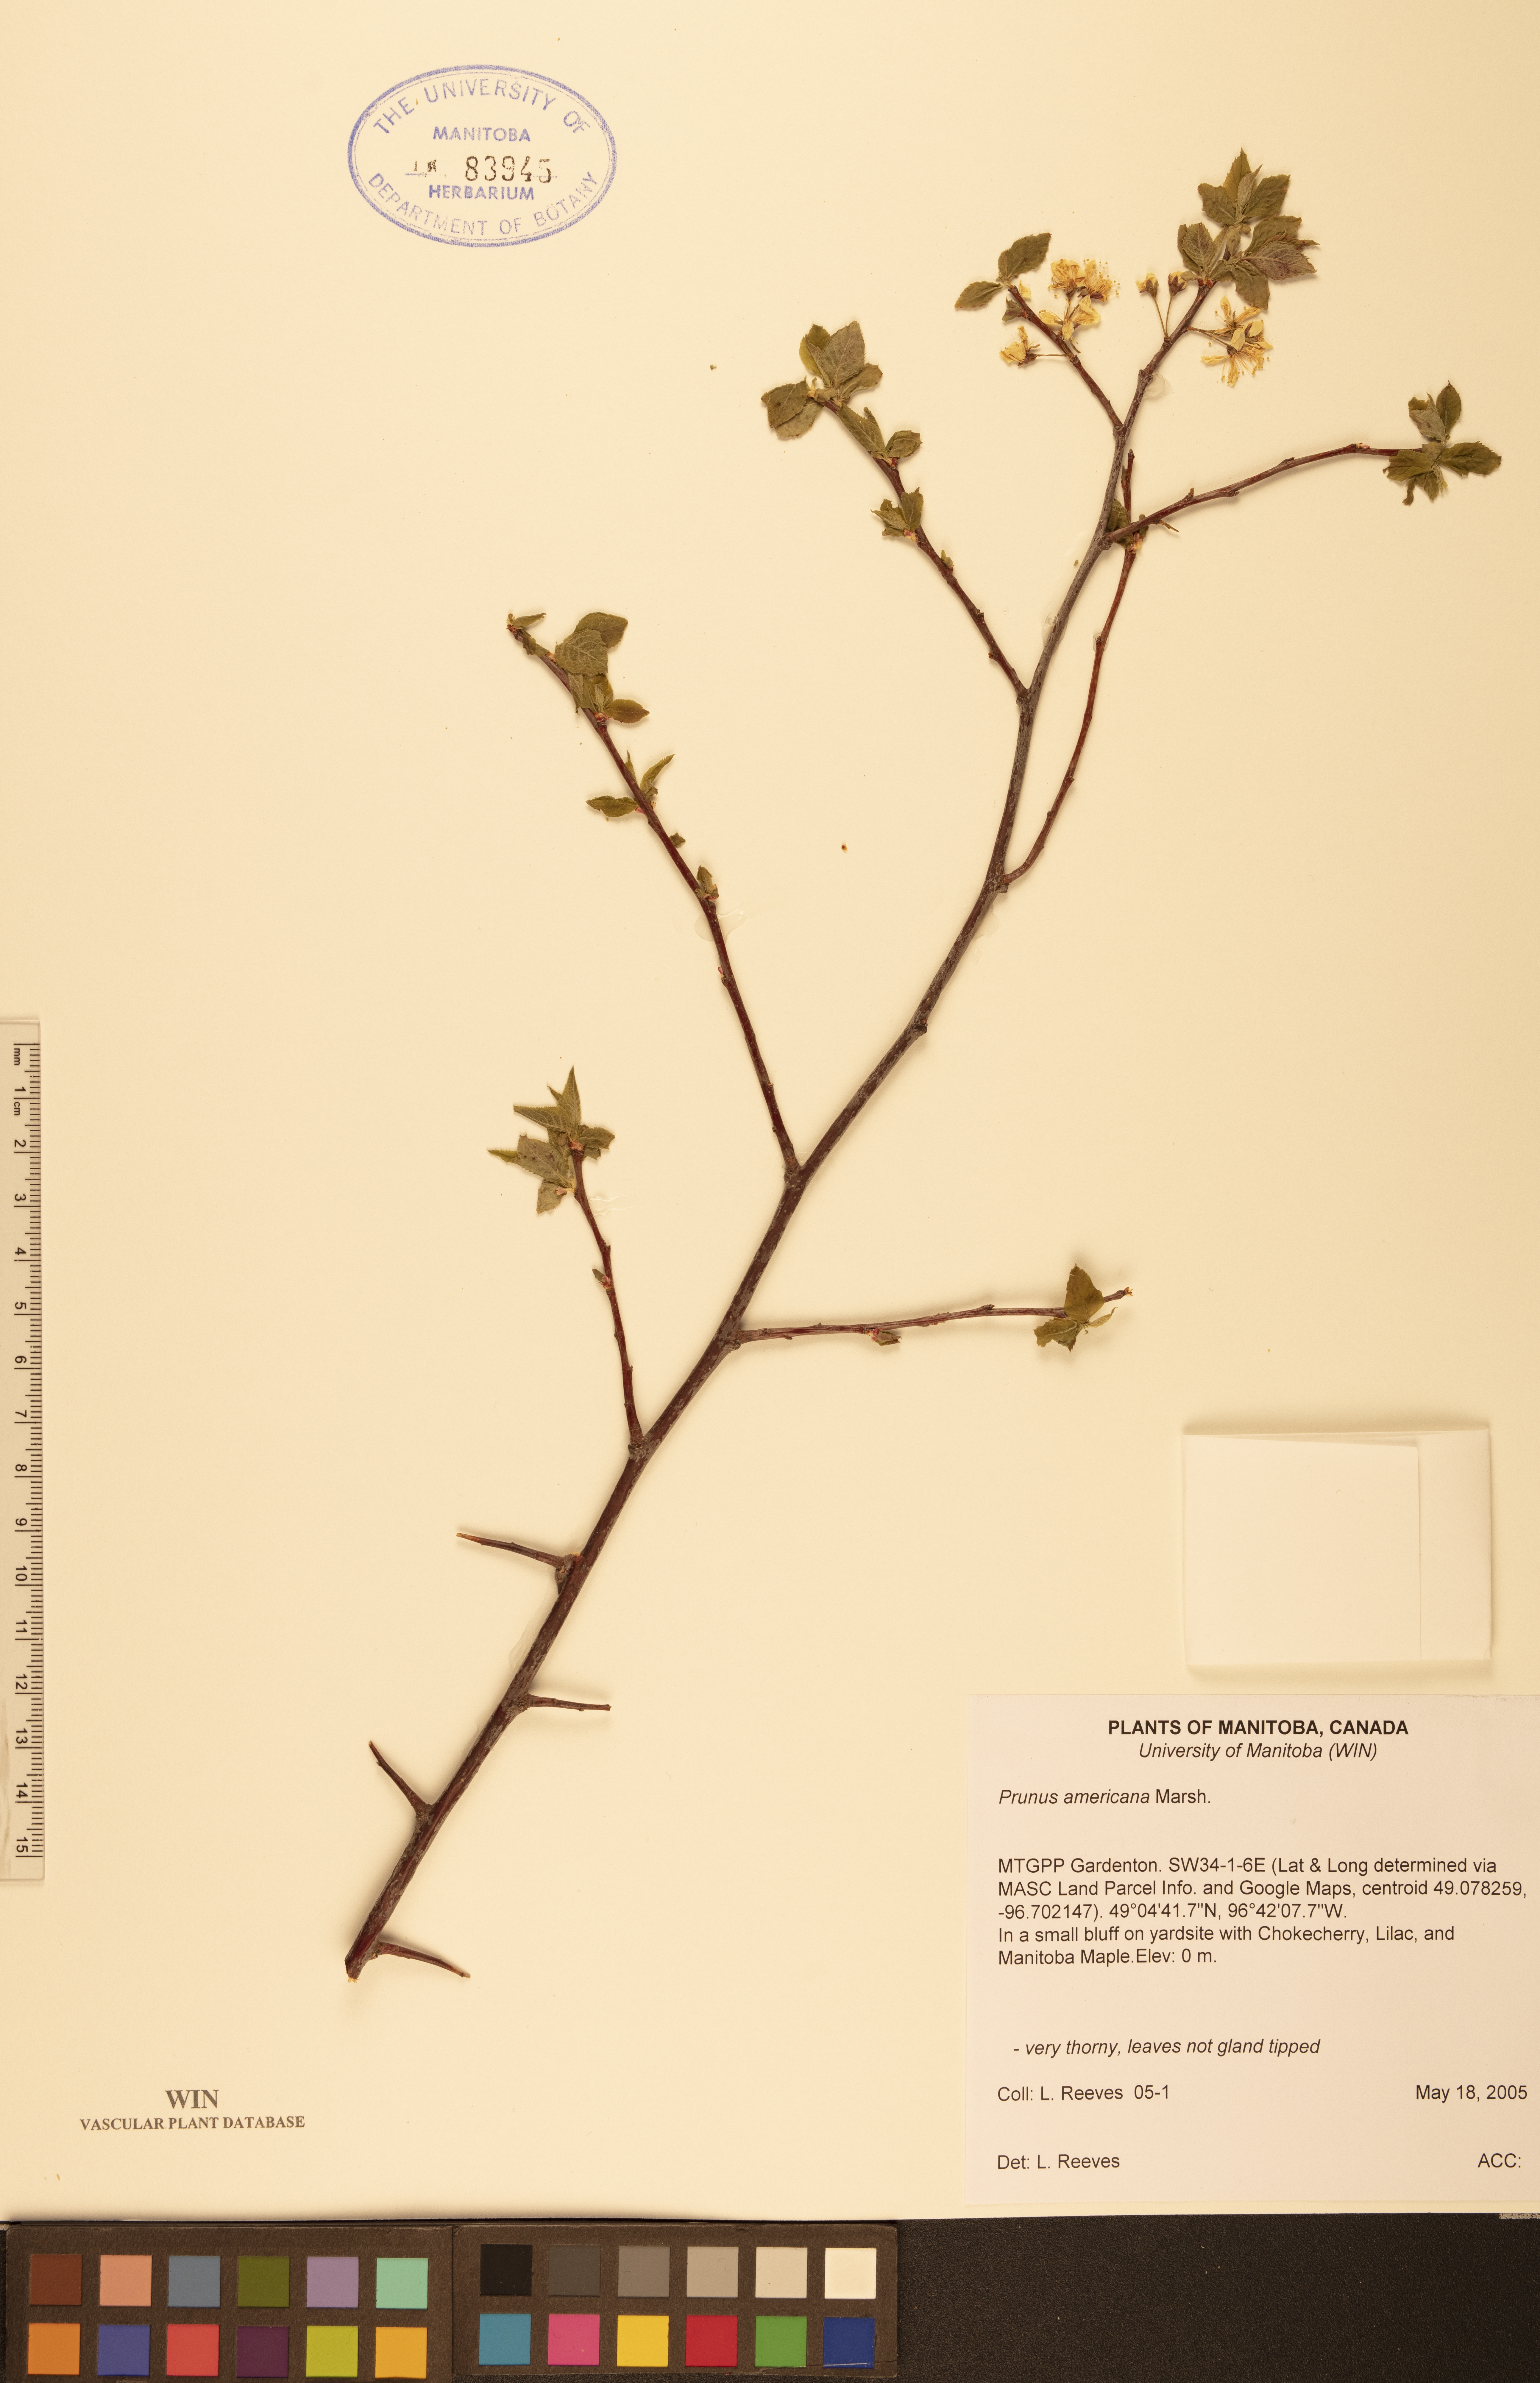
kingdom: Plantae
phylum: Tracheophyta
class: Magnoliopsida
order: Rosales
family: Rosaceae
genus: Prunus
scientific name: Prunus americana
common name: American plum
